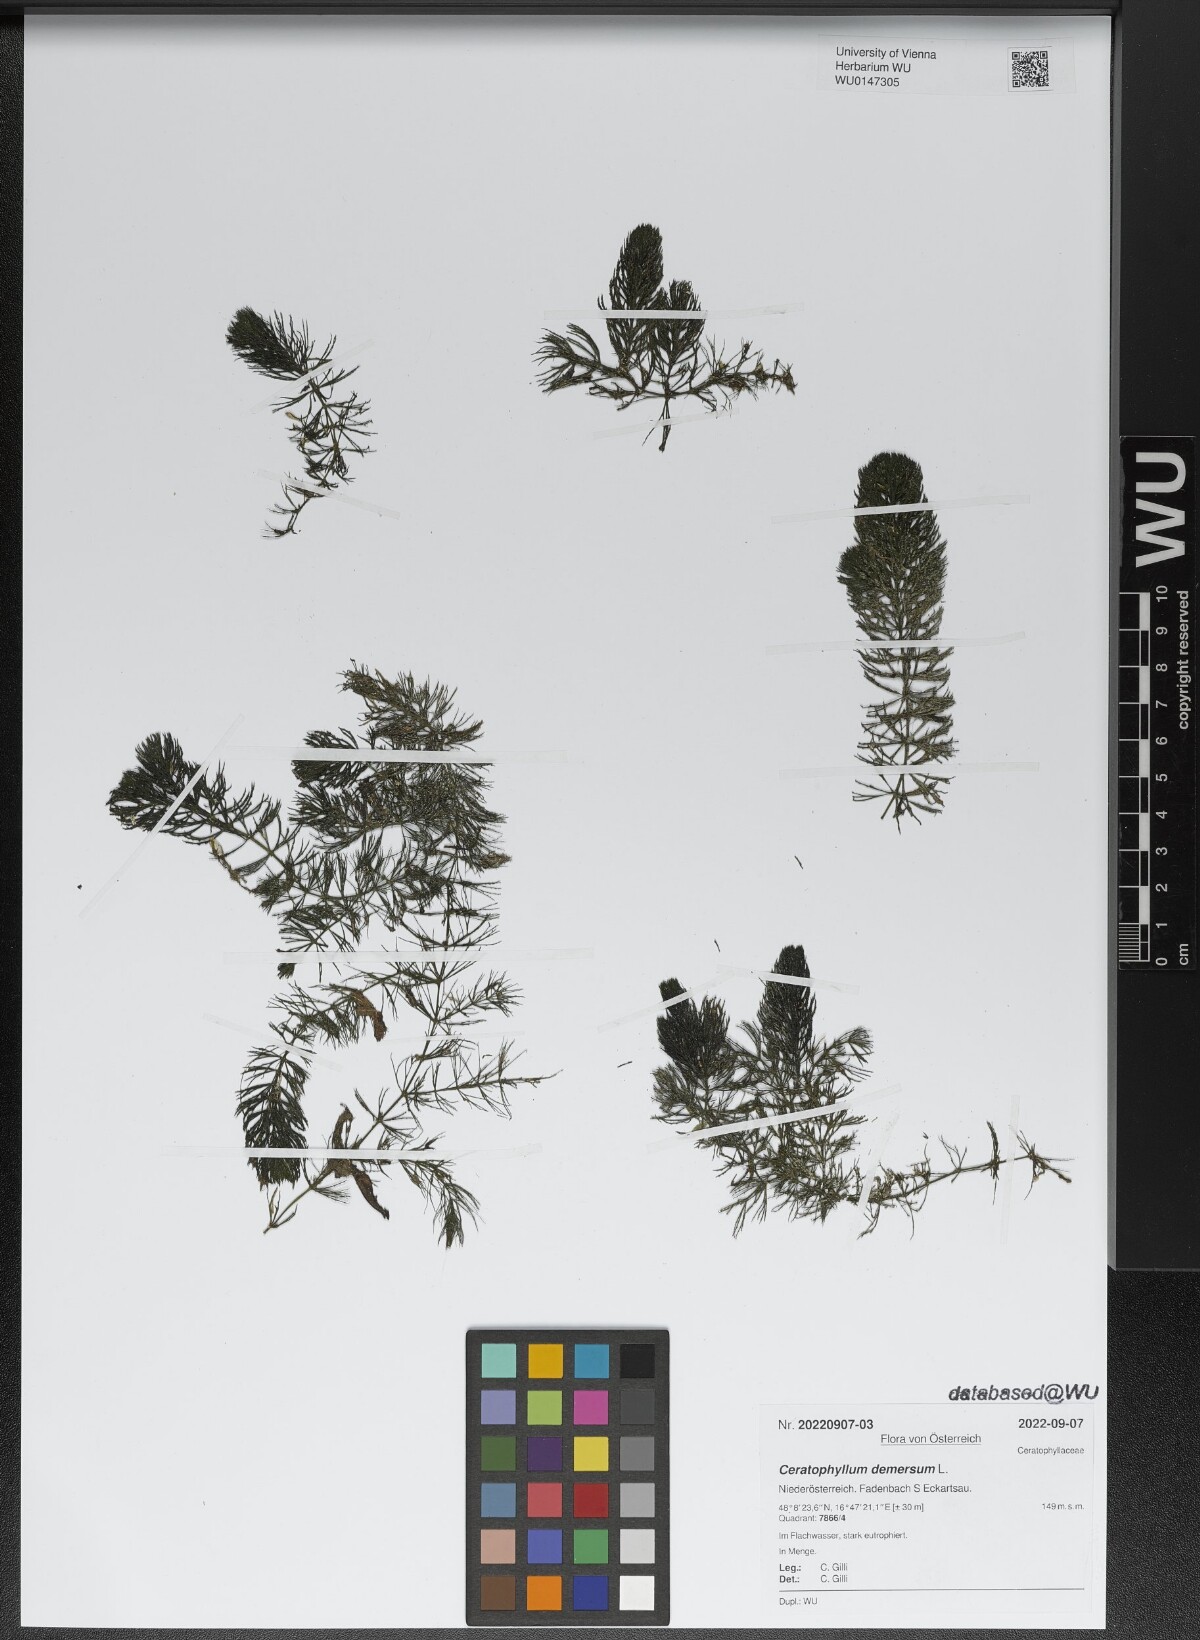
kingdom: Plantae
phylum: Tracheophyta
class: Magnoliopsida
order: Ceratophyllales
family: Ceratophyllaceae
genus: Ceratophyllum
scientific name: Ceratophyllum demersum
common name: Rigid hornwort
